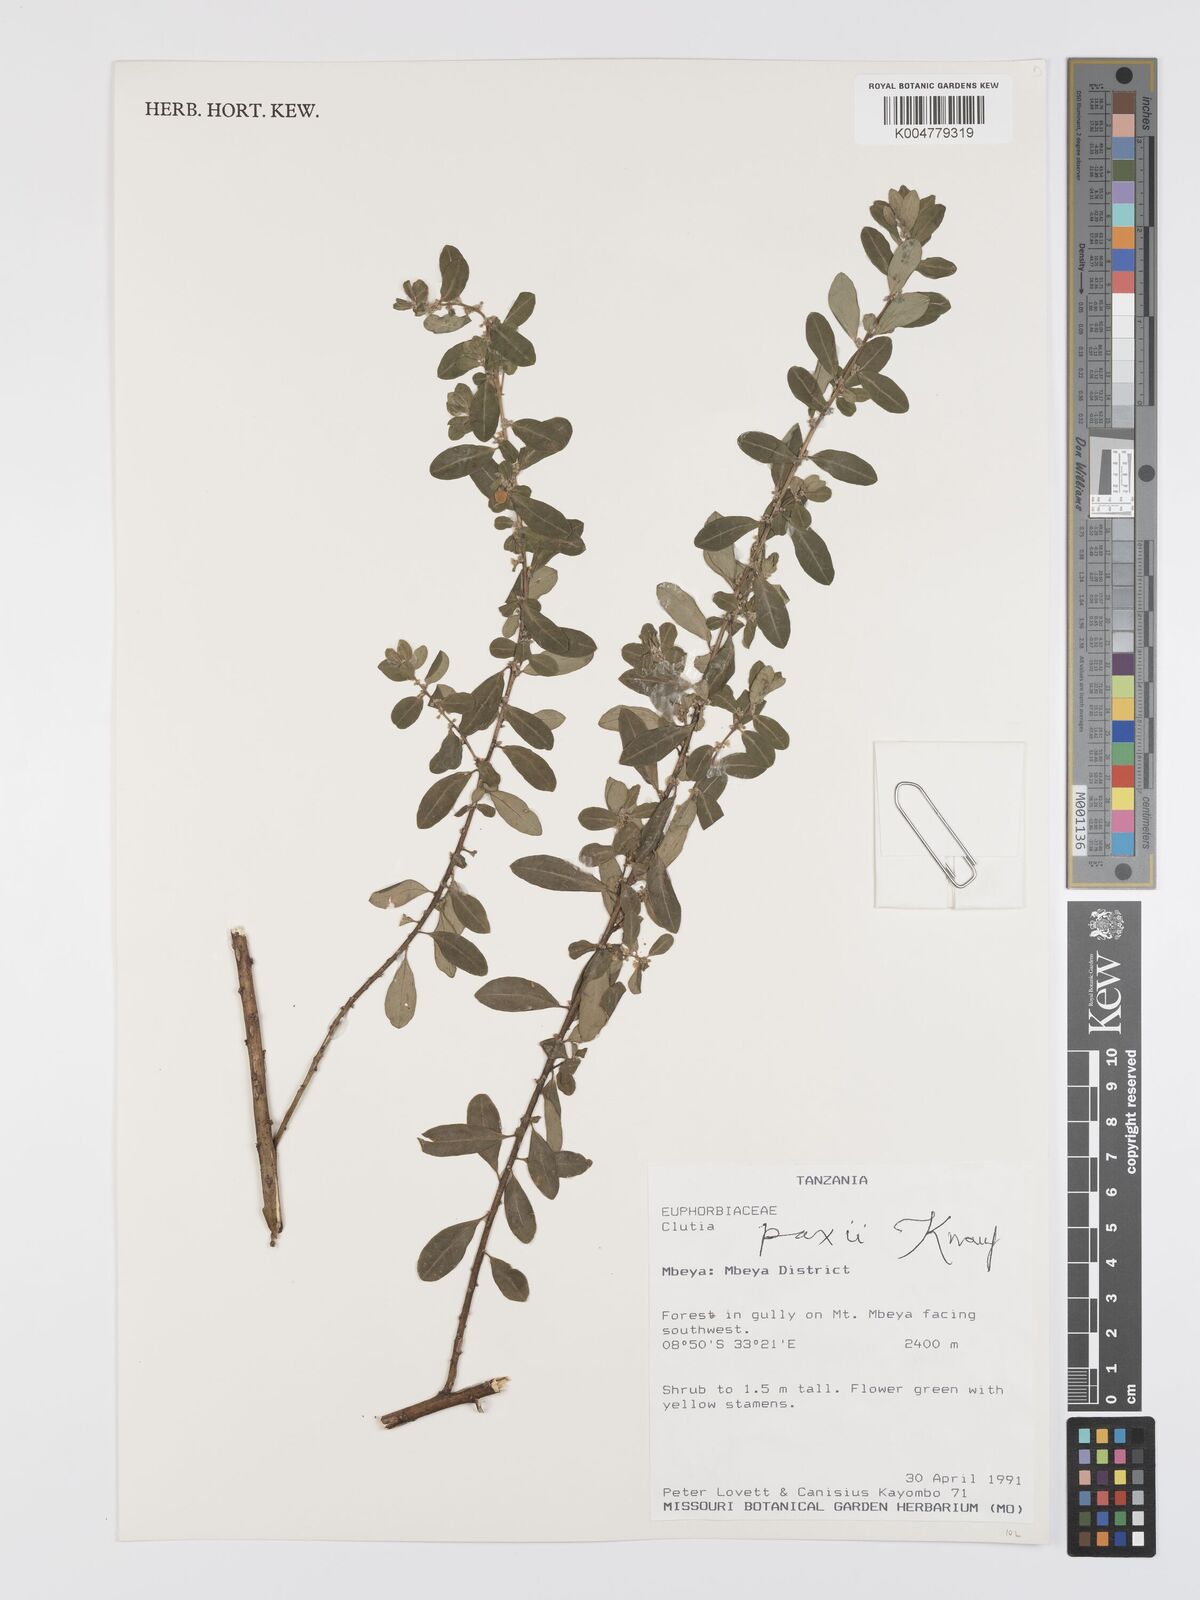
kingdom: Plantae
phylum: Tracheophyta
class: Magnoliopsida
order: Malpighiales
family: Peraceae
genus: Clutia
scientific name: Clutia paxii
